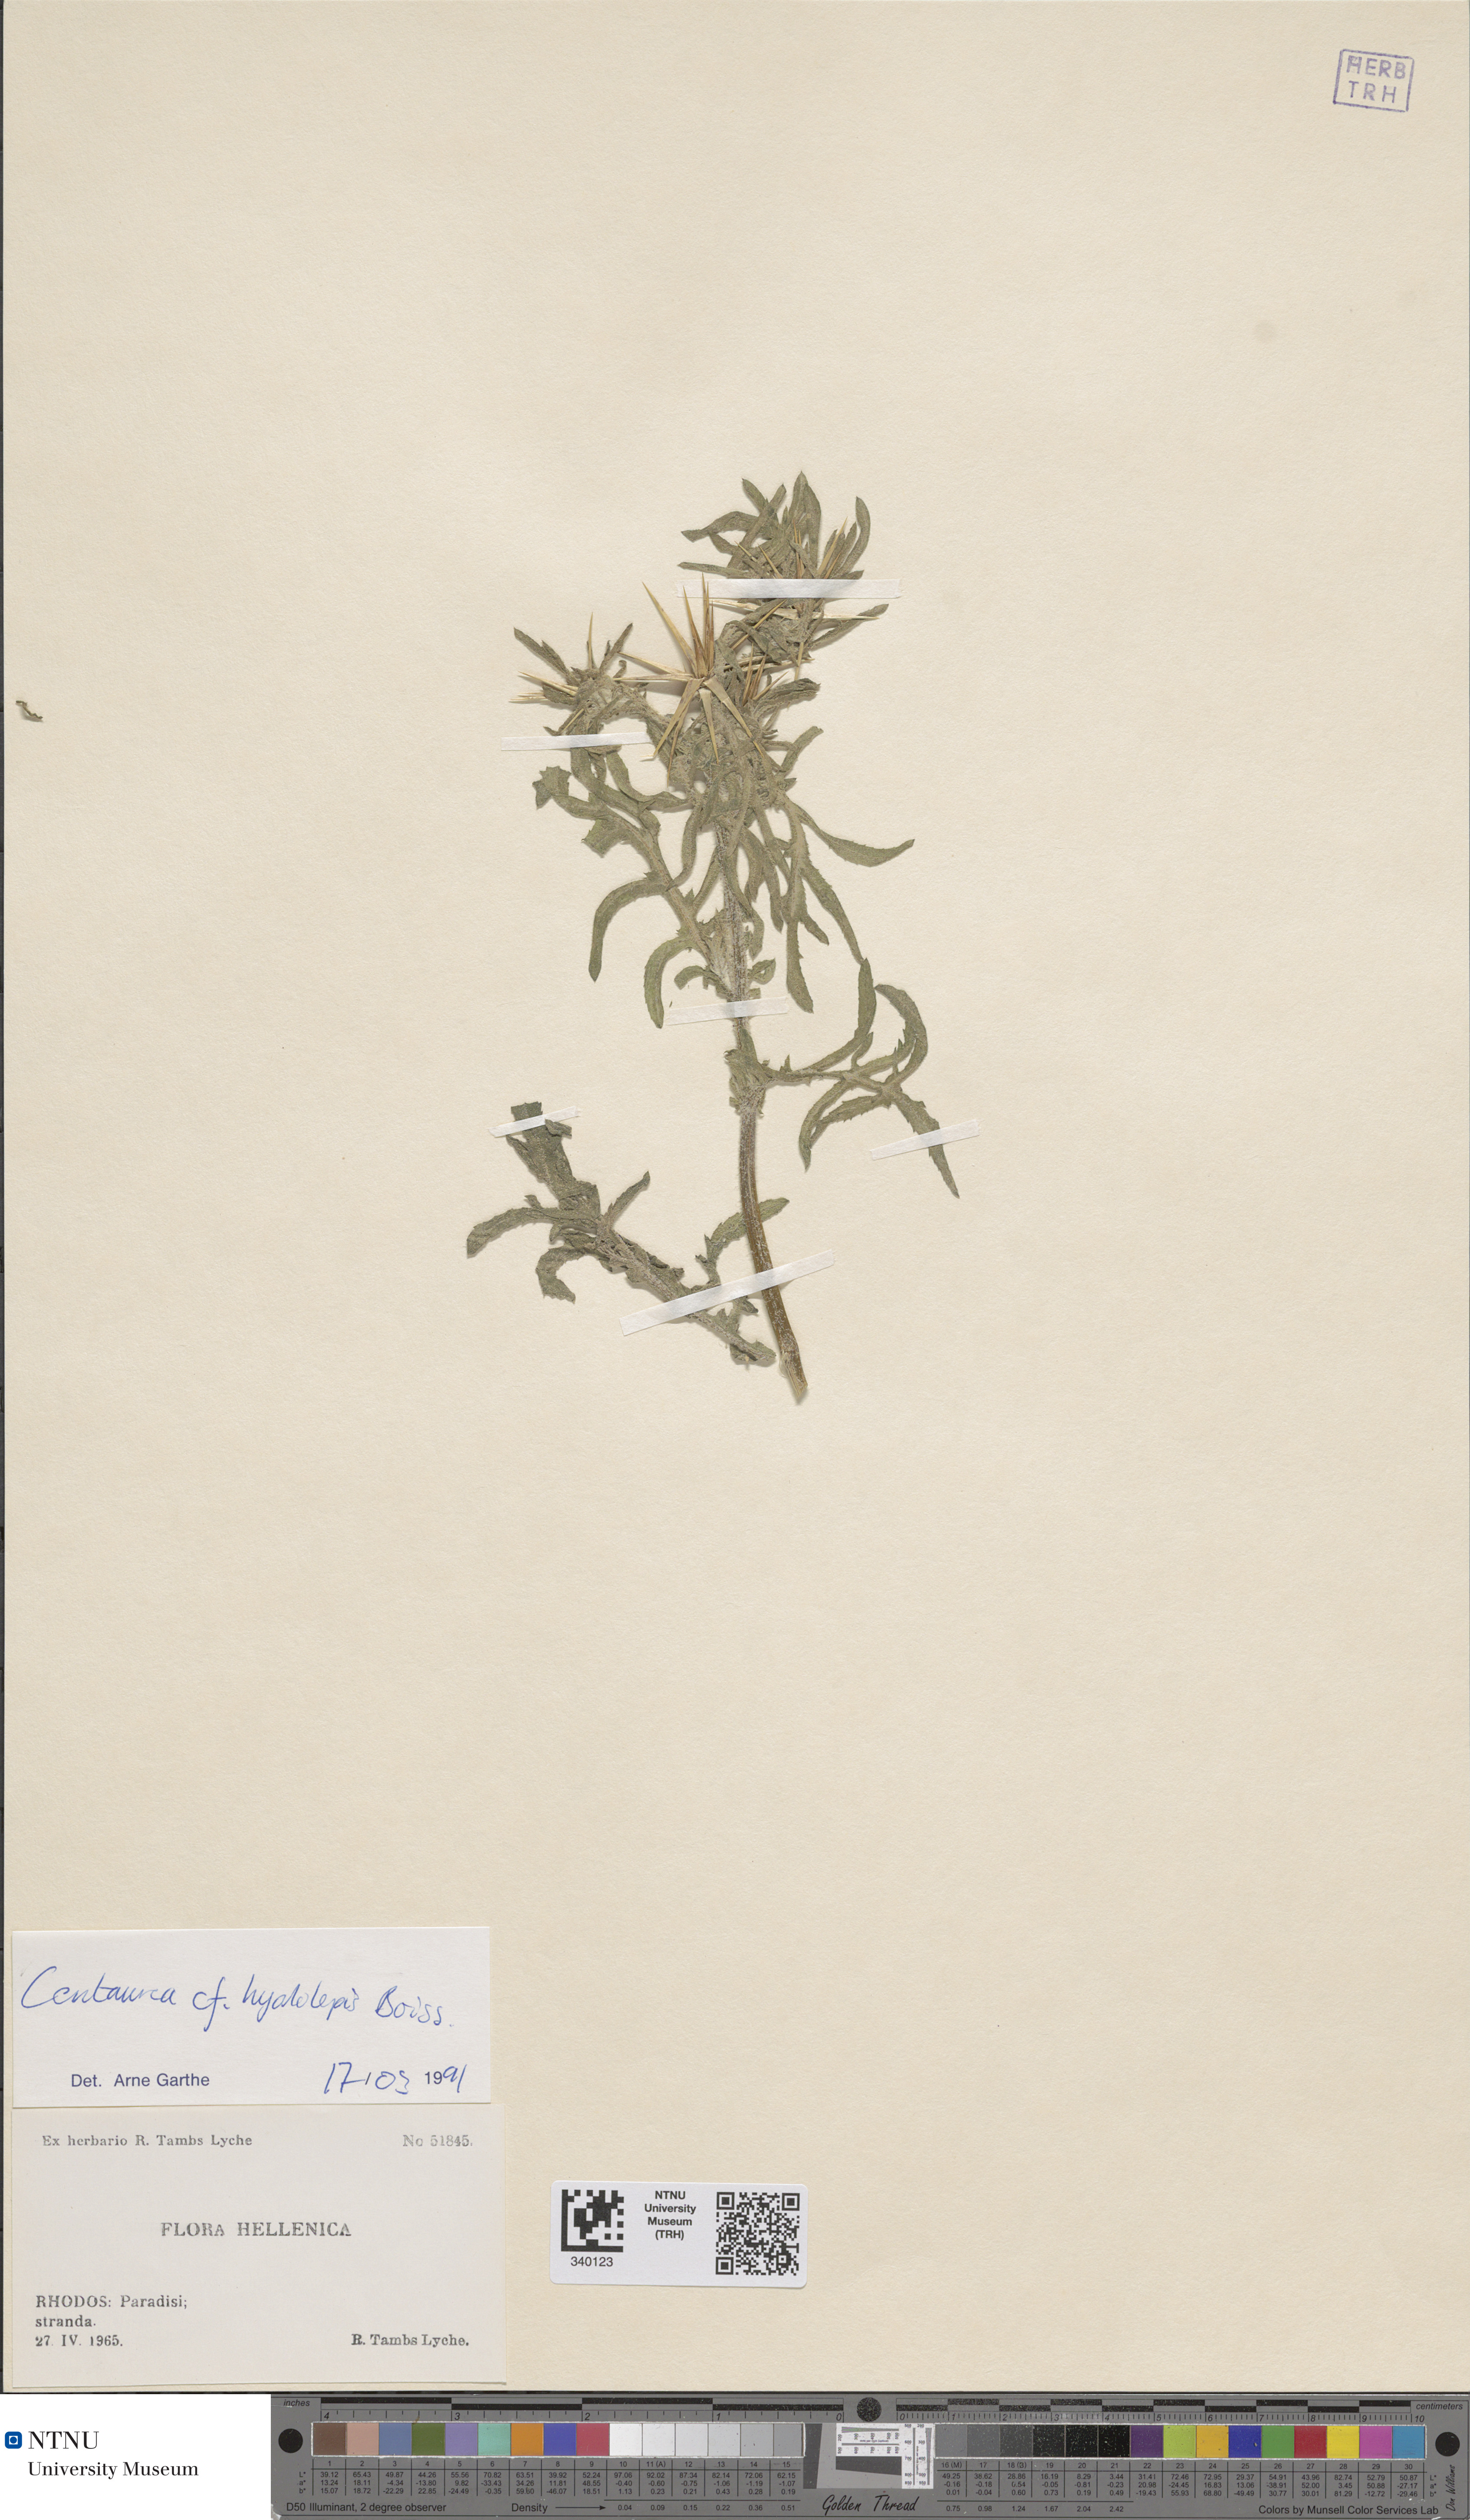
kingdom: Plantae
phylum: Tracheophyta
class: Magnoliopsida
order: Asterales
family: Asteraceae
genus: Centaurea
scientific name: Centaurea pallescens
